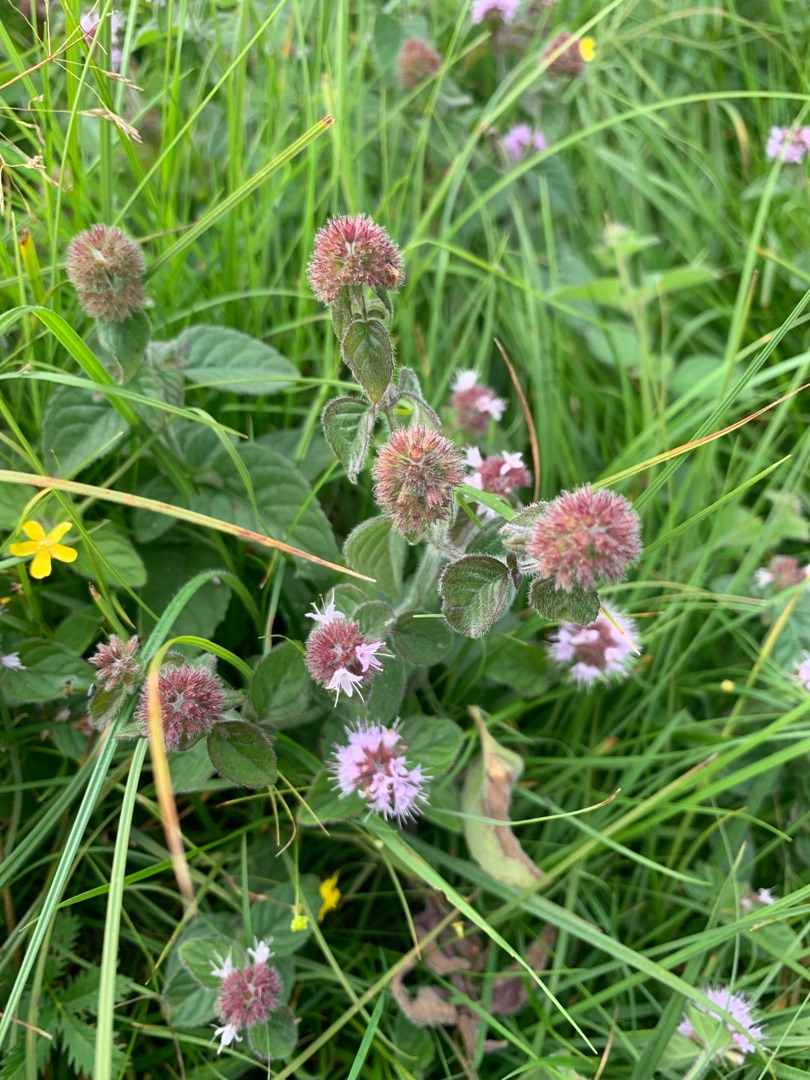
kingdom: Plantae
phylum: Tracheophyta
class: Magnoliopsida
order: Lamiales
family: Lamiaceae
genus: Mentha
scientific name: Mentha aquatica
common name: Vand-mynte
